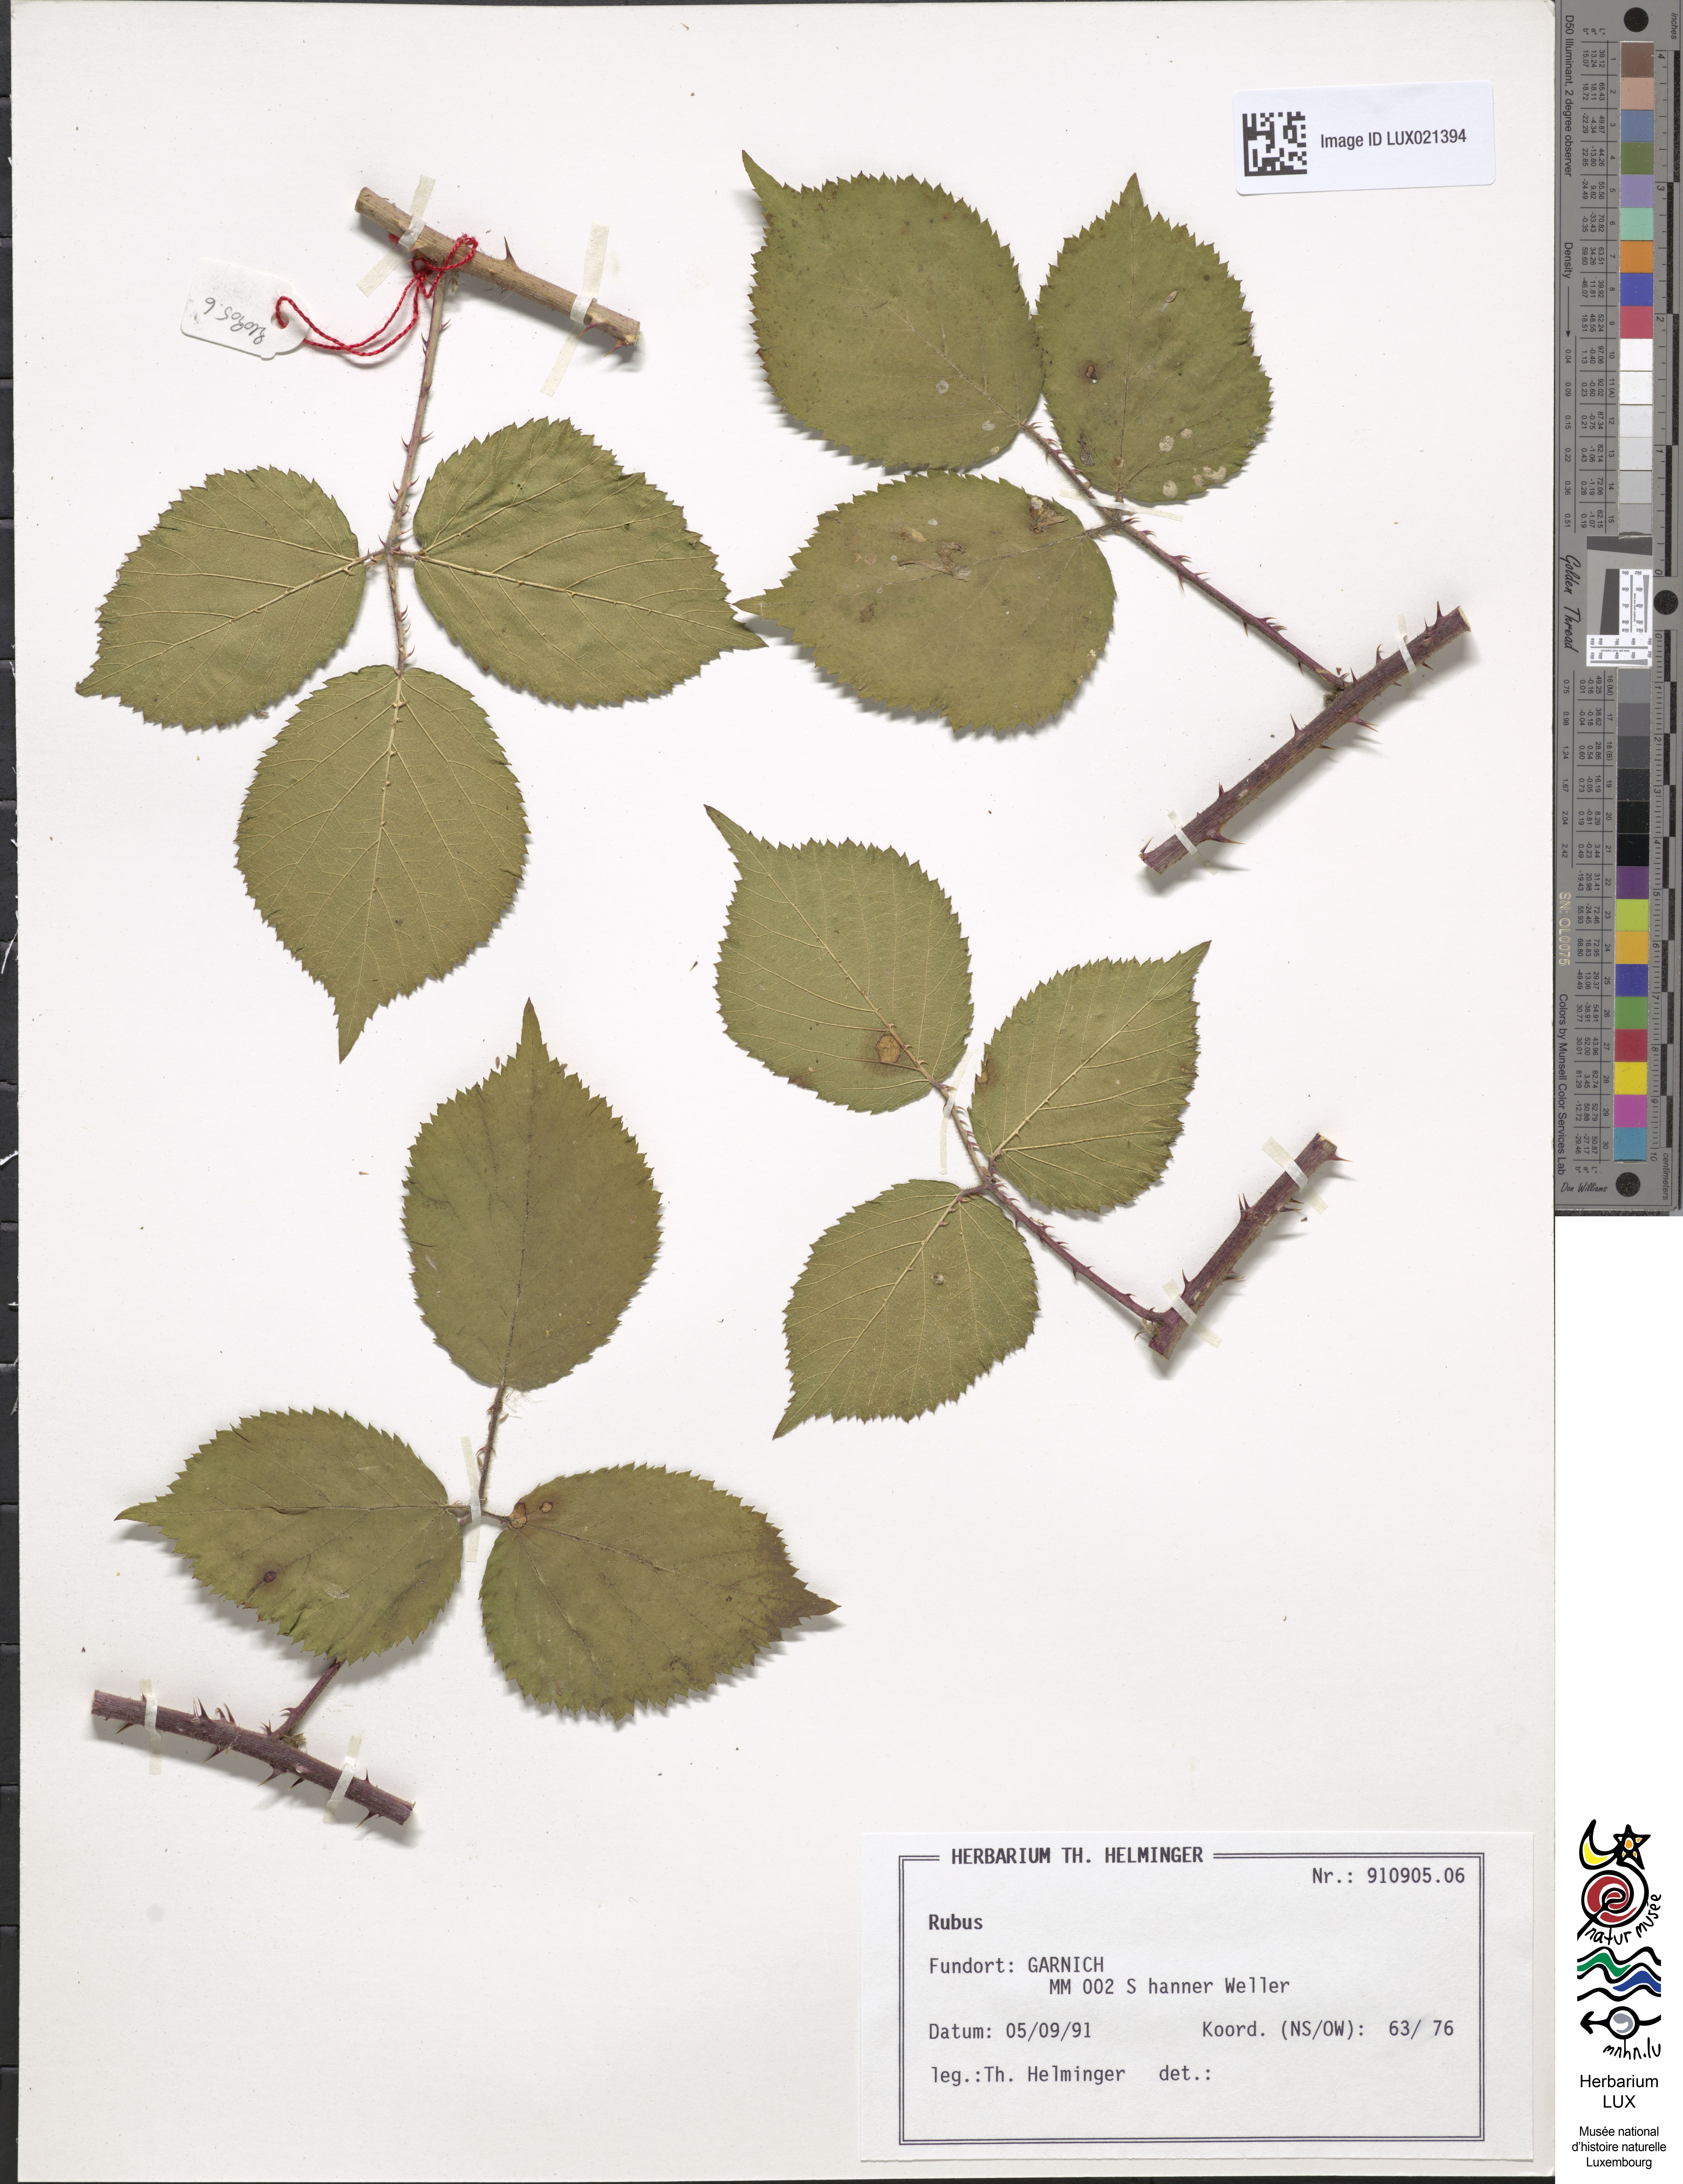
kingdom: Plantae
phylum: Tracheophyta
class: Magnoliopsida
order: Rosales
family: Rosaceae
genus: Rubus
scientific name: Rubus
